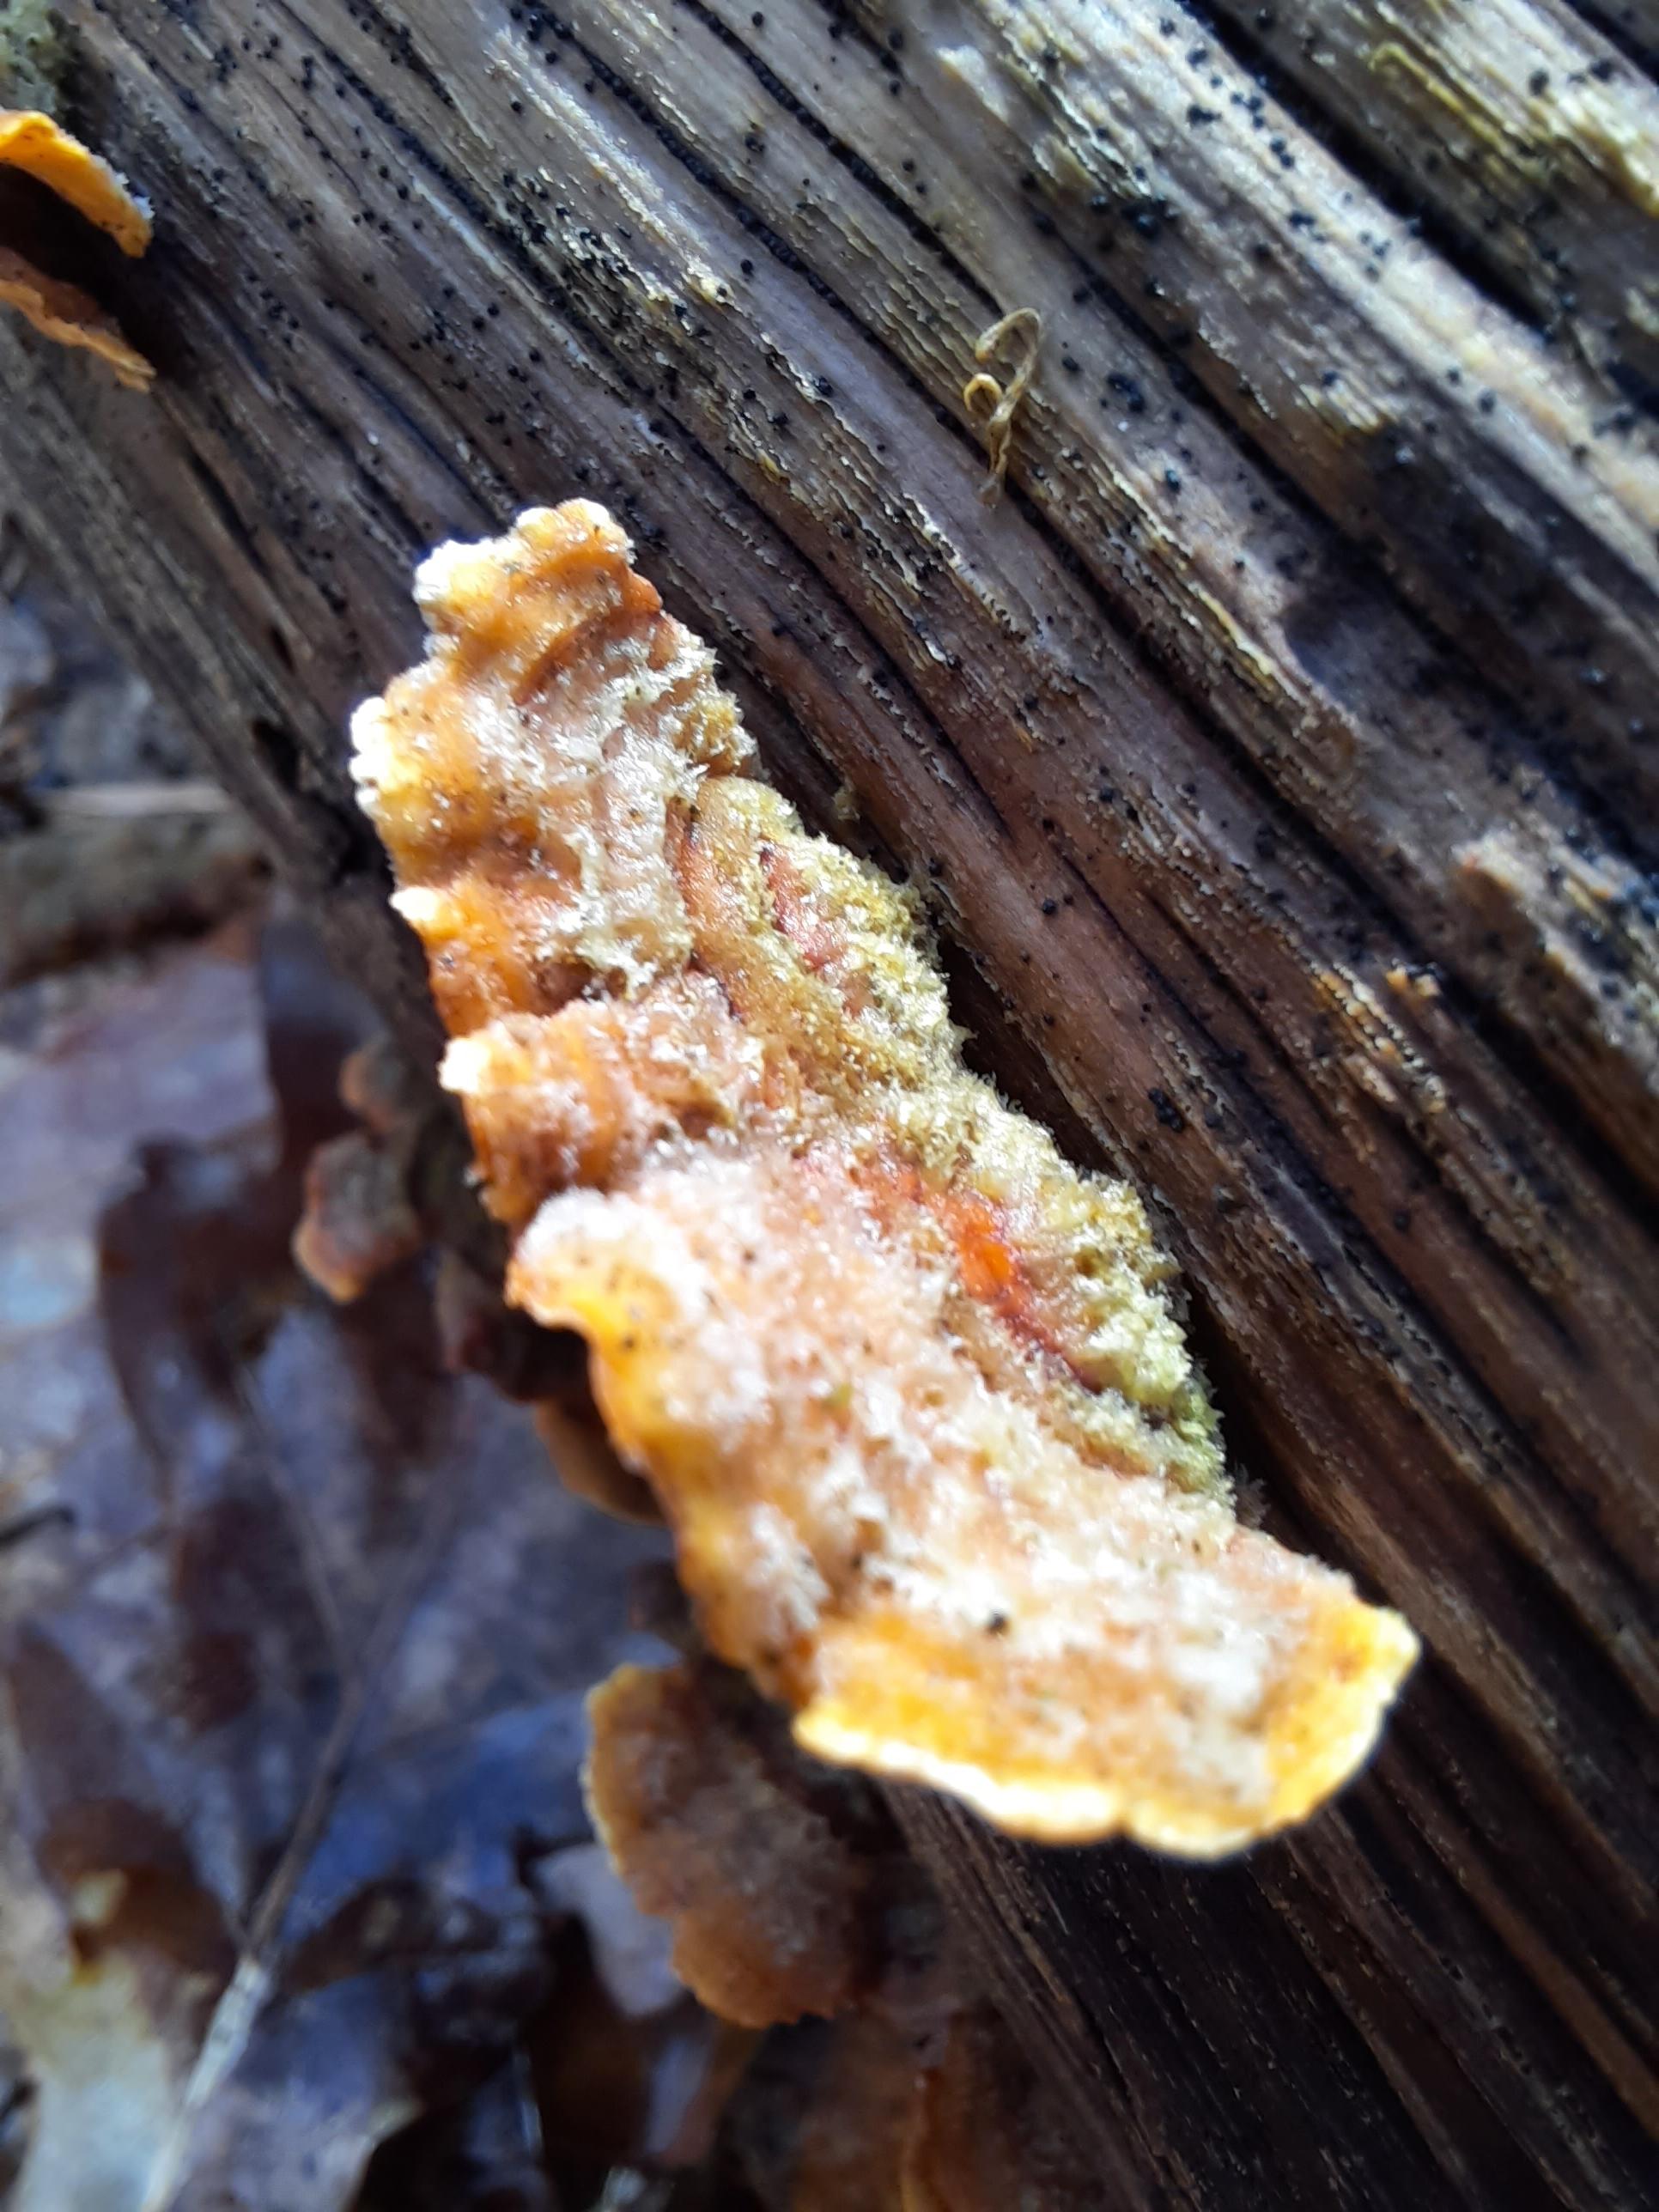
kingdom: Fungi
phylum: Basidiomycota
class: Agaricomycetes
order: Russulales
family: Stereaceae
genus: Stereum
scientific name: Stereum hirsutum
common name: håret lædersvamp
